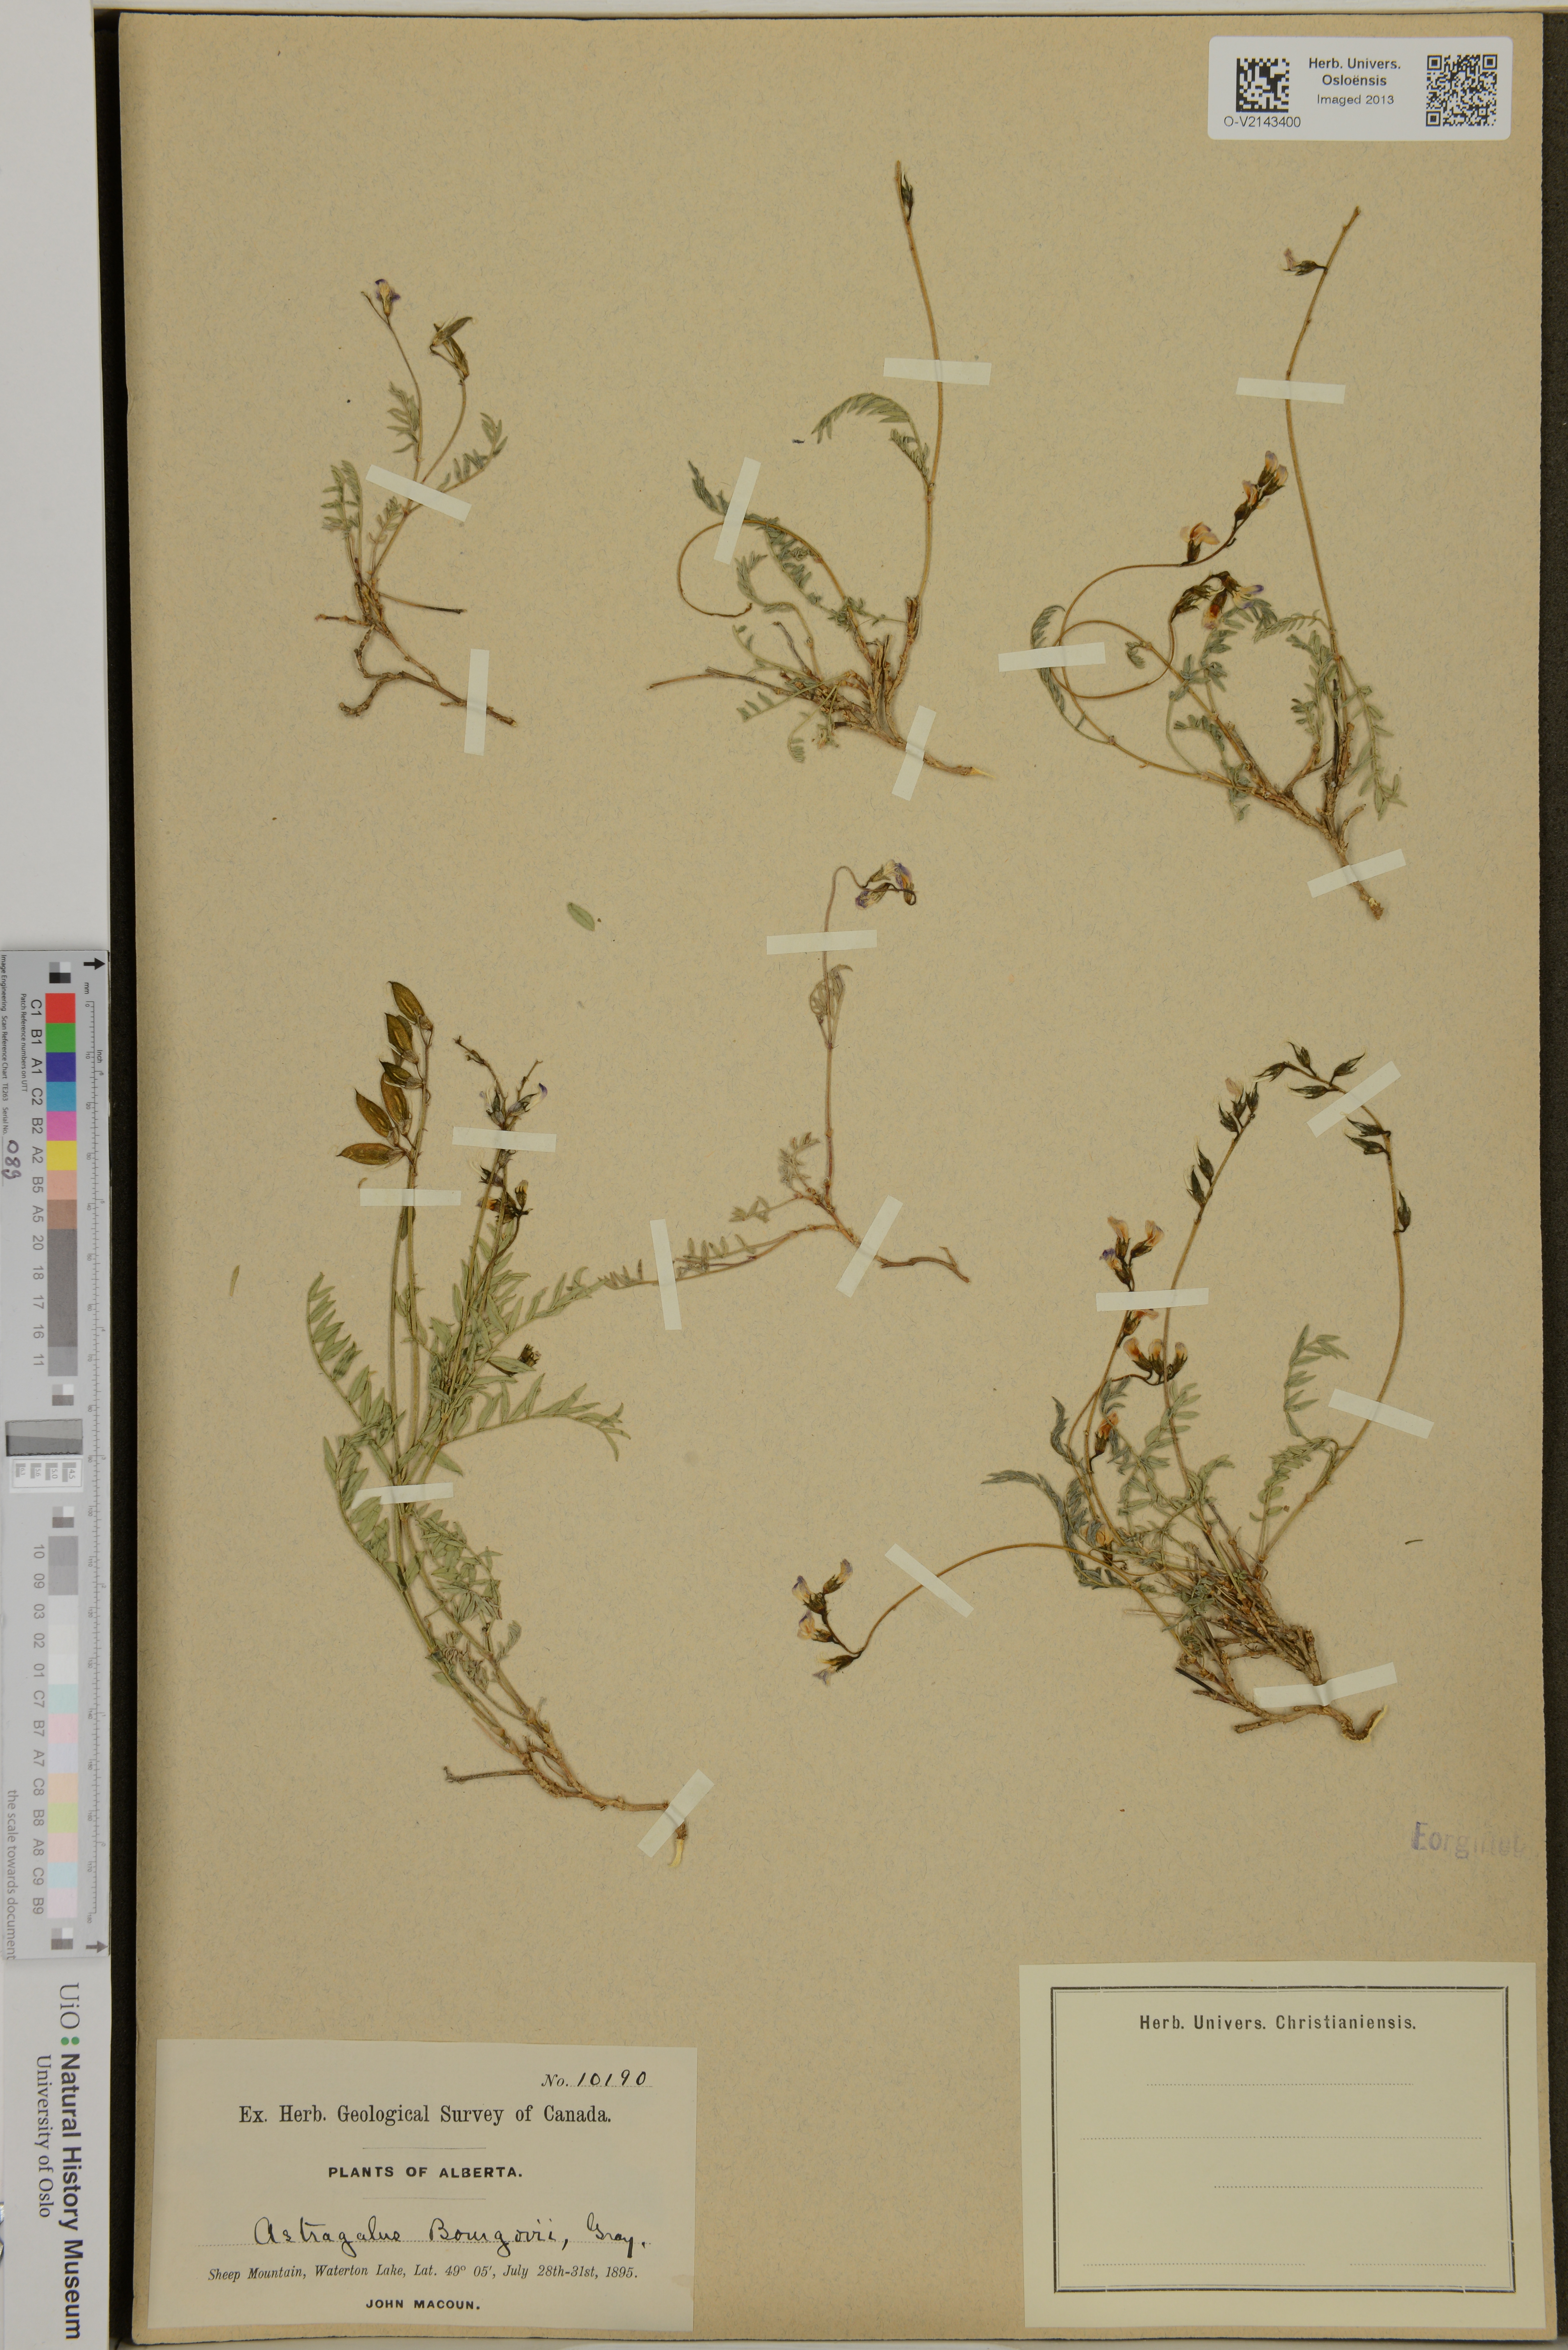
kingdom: Plantae
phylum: Tracheophyta
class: Magnoliopsida
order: Fabales
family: Fabaceae
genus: Astragalus
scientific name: Astragalus bourgovii
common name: Bourgeau's milk-vetch
